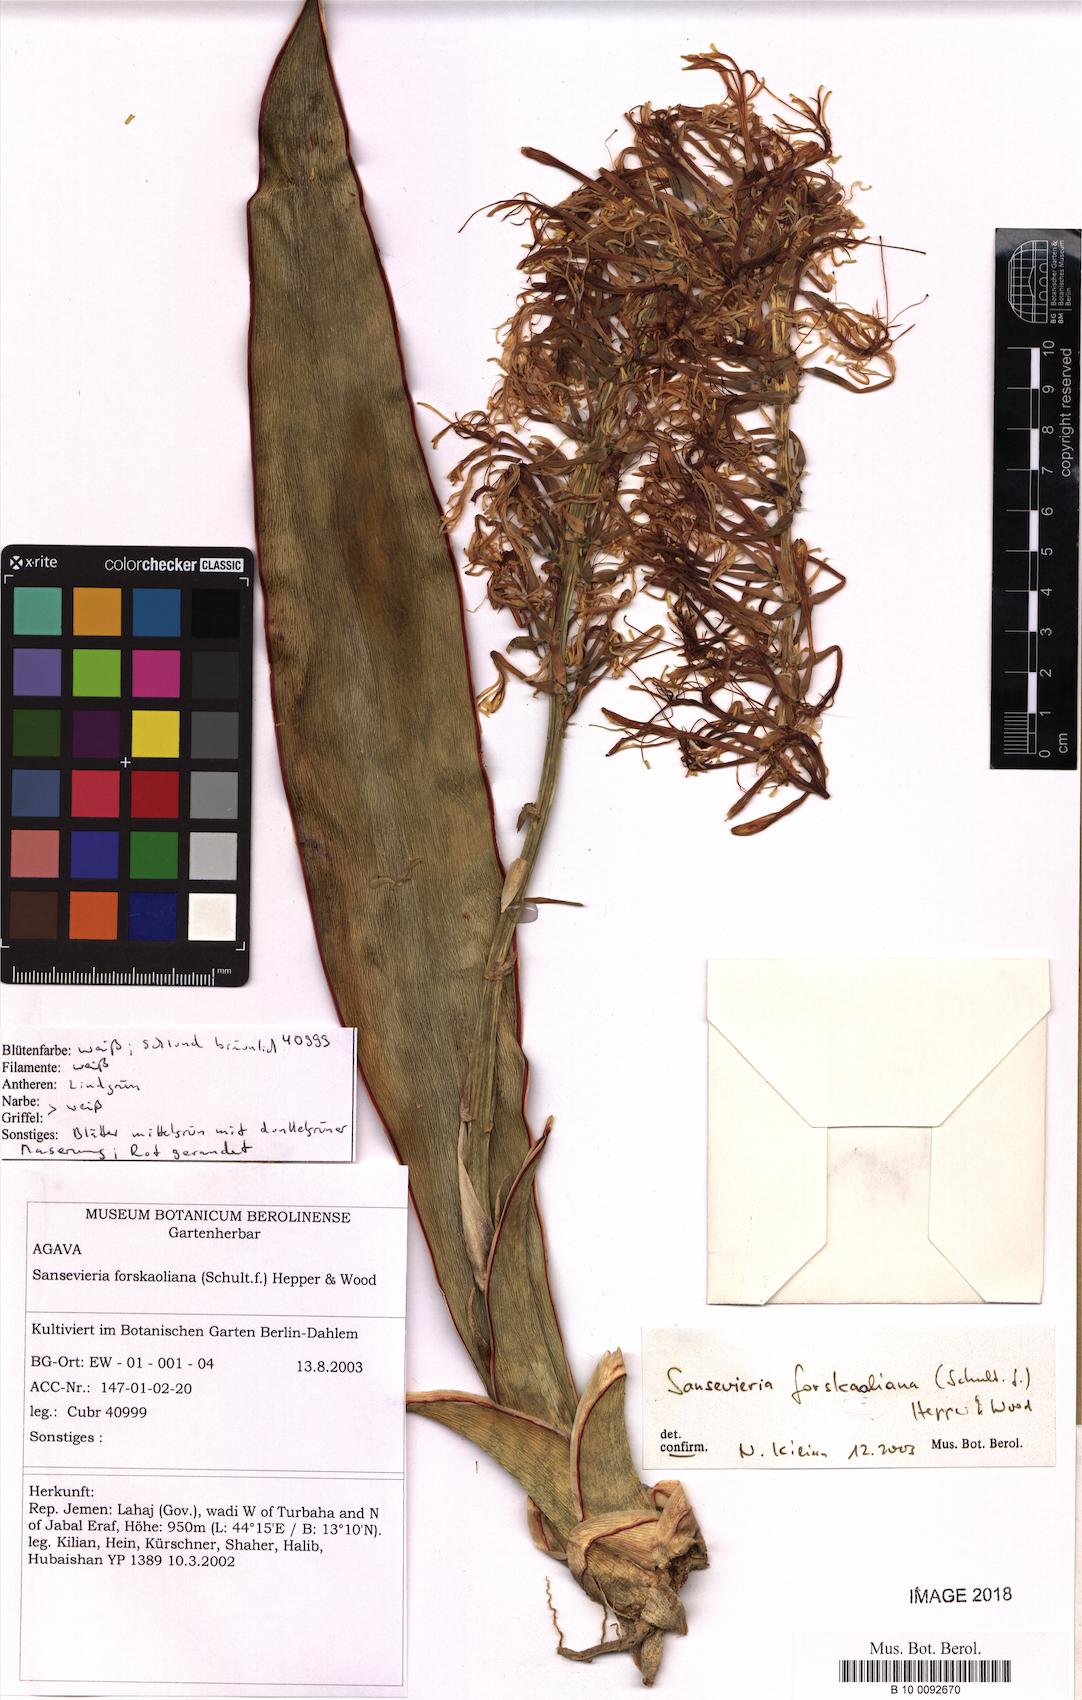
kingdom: Plantae
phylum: Tracheophyta
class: Liliopsida
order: Asparagales
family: Asparagaceae
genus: Dracaena
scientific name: Dracaena forskaliana
